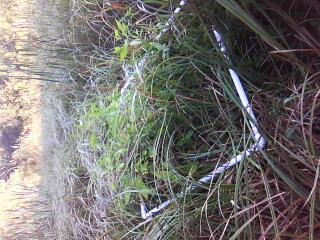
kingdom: Plantae
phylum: Tracheophyta
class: Liliopsida
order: Poales
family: Cyperaceae
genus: Carex
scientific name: Carex stricta
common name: Hummock sedge
